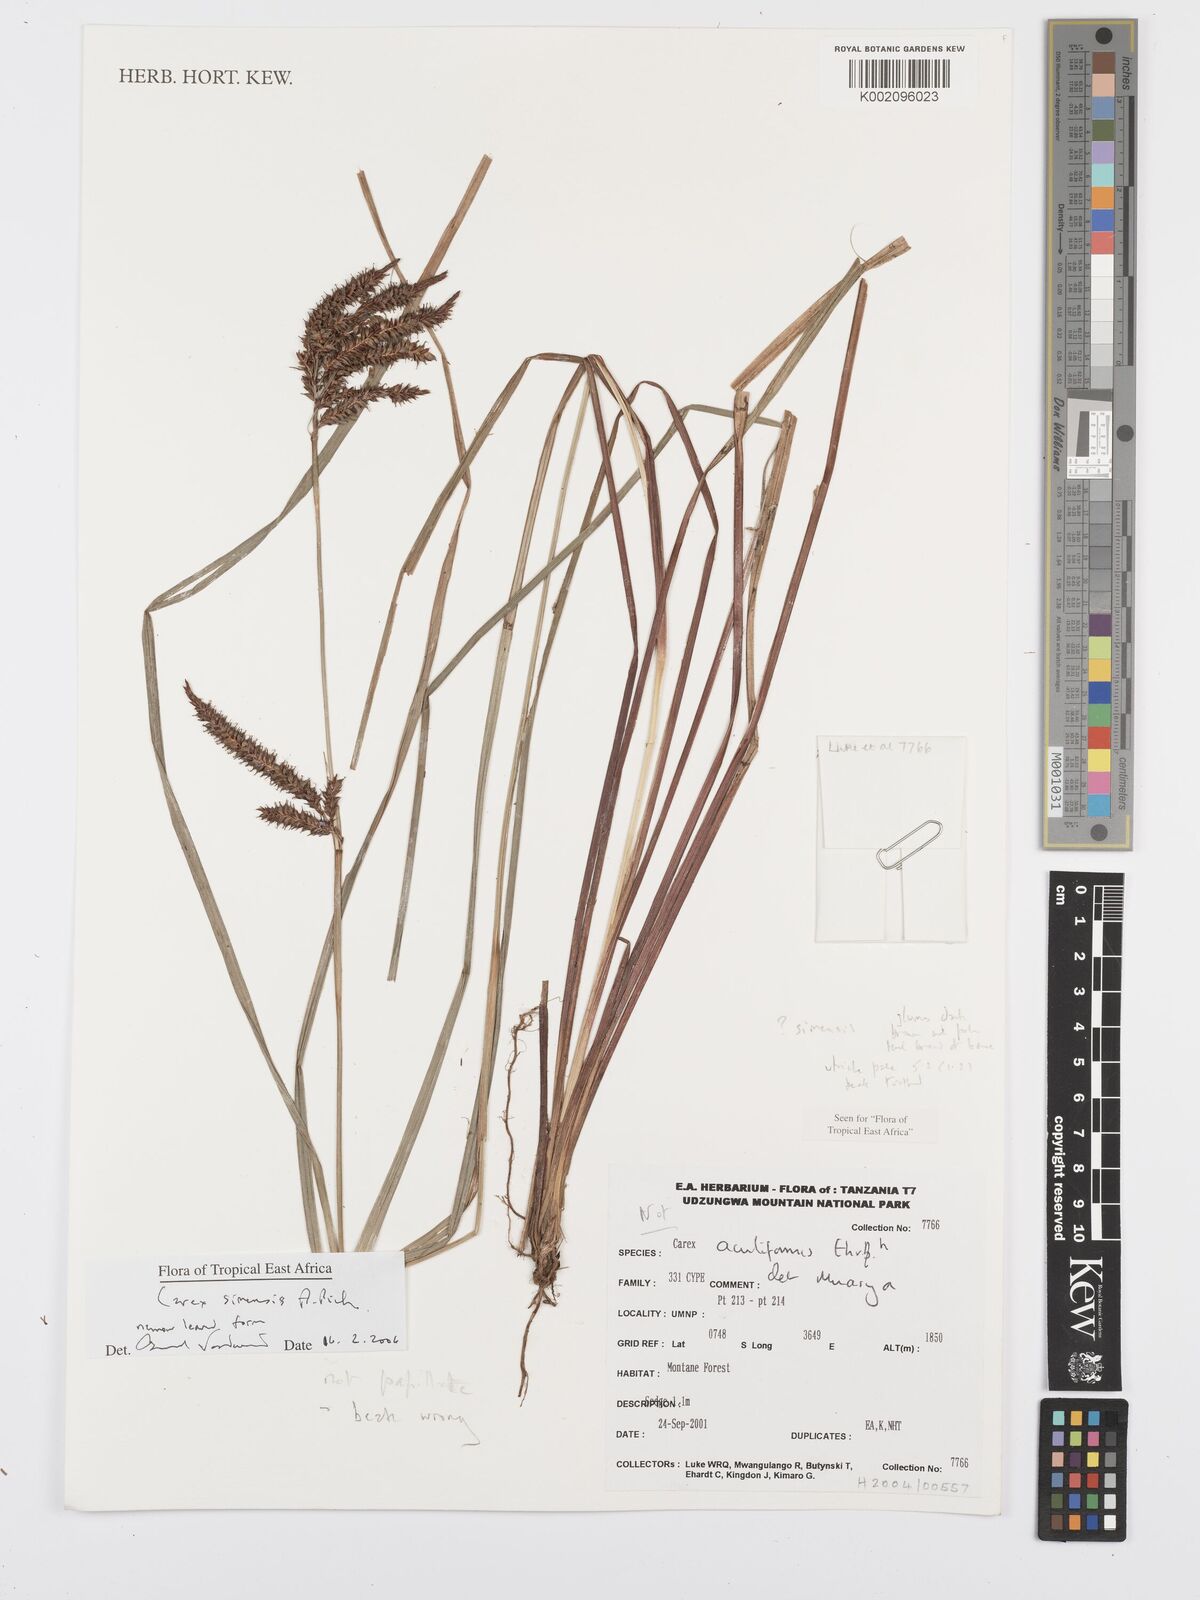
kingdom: Plantae
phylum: Tracheophyta
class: Liliopsida
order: Poales
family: Cyperaceae
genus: Carex
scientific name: Carex simensis
